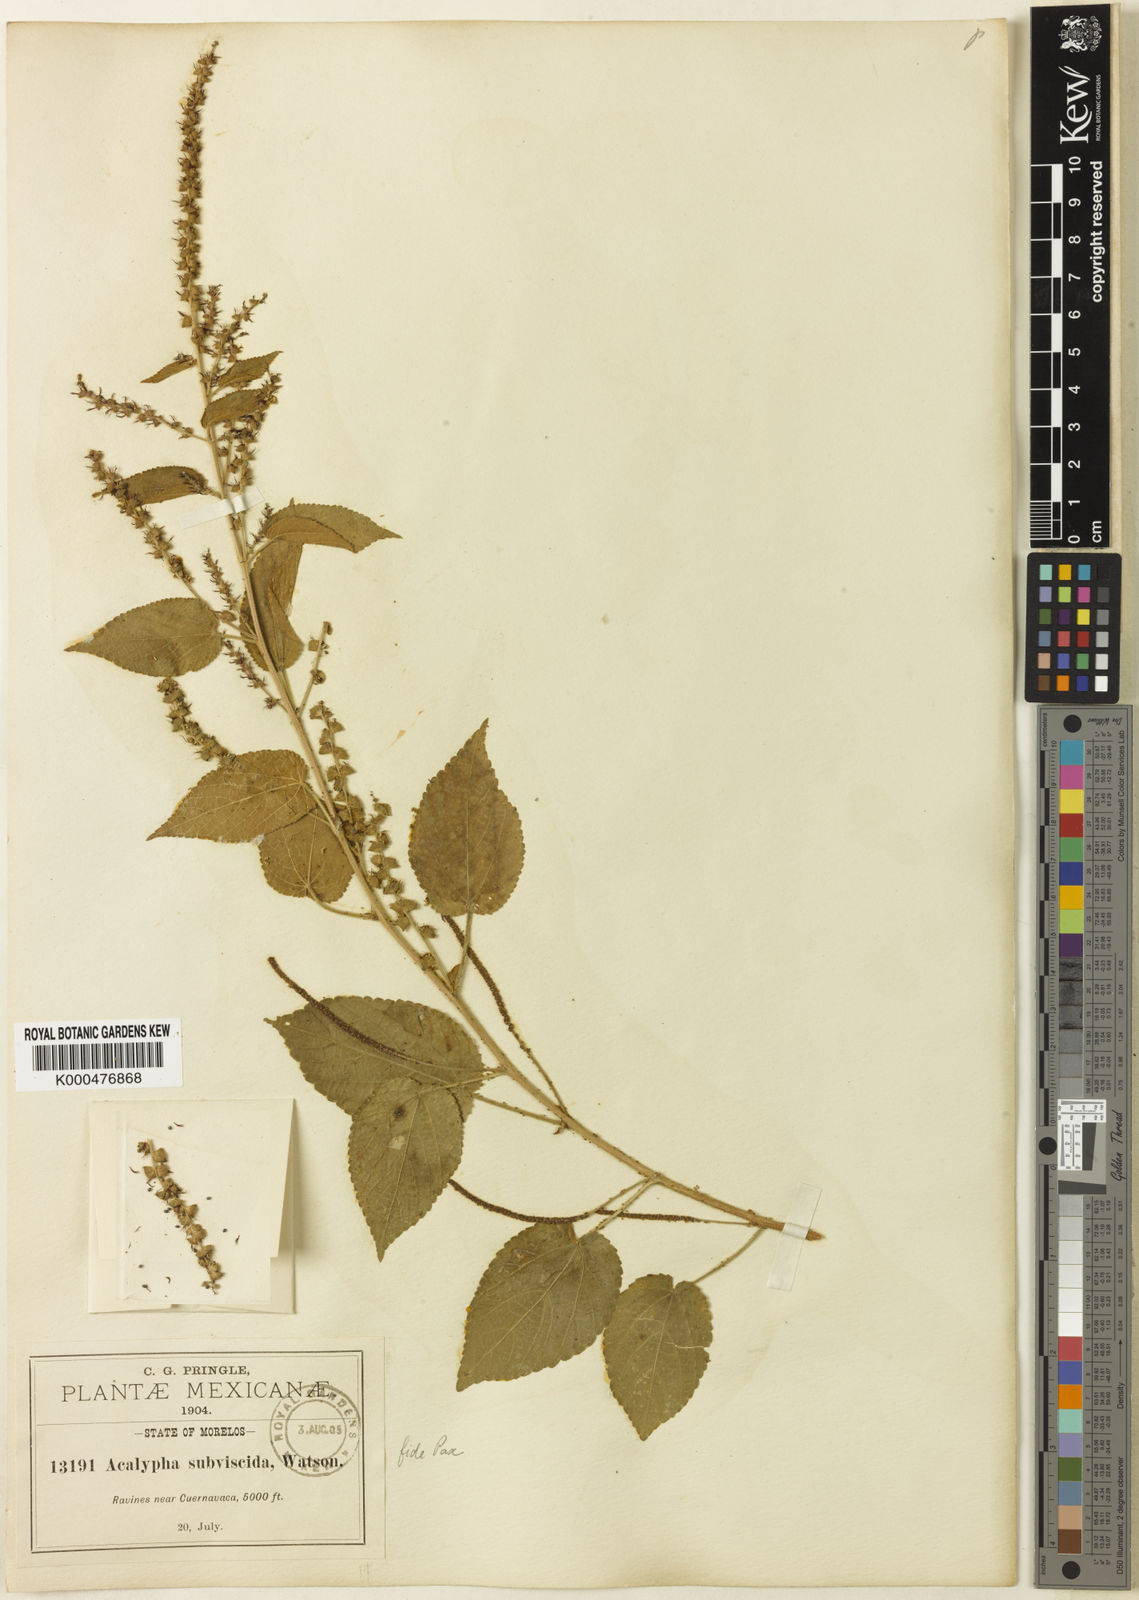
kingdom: Plantae
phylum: Tracheophyta
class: Magnoliopsida
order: Malpighiales
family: Euphorbiaceae
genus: Acalypha
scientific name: Acalypha subviscida
